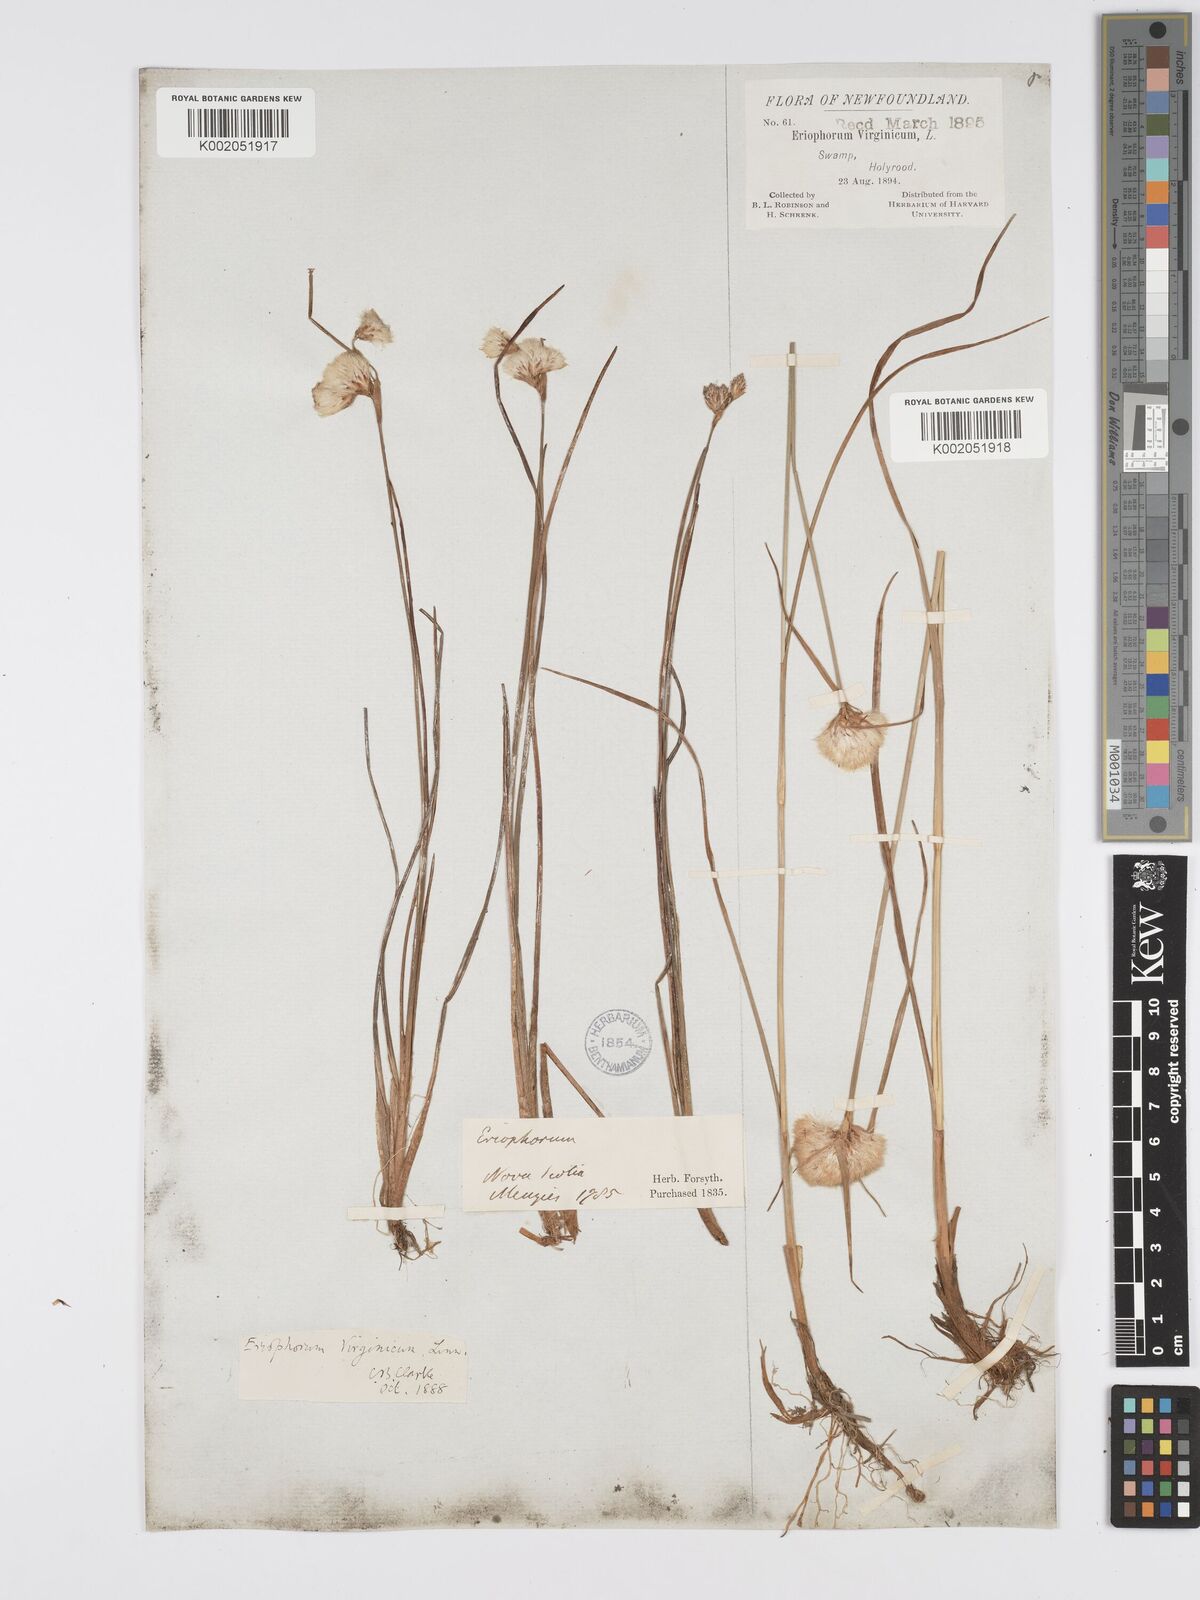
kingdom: Plantae
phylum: Tracheophyta
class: Liliopsida
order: Poales
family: Cyperaceae
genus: Eriophorum
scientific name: Eriophorum virginicum
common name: Tawny cottongrass
